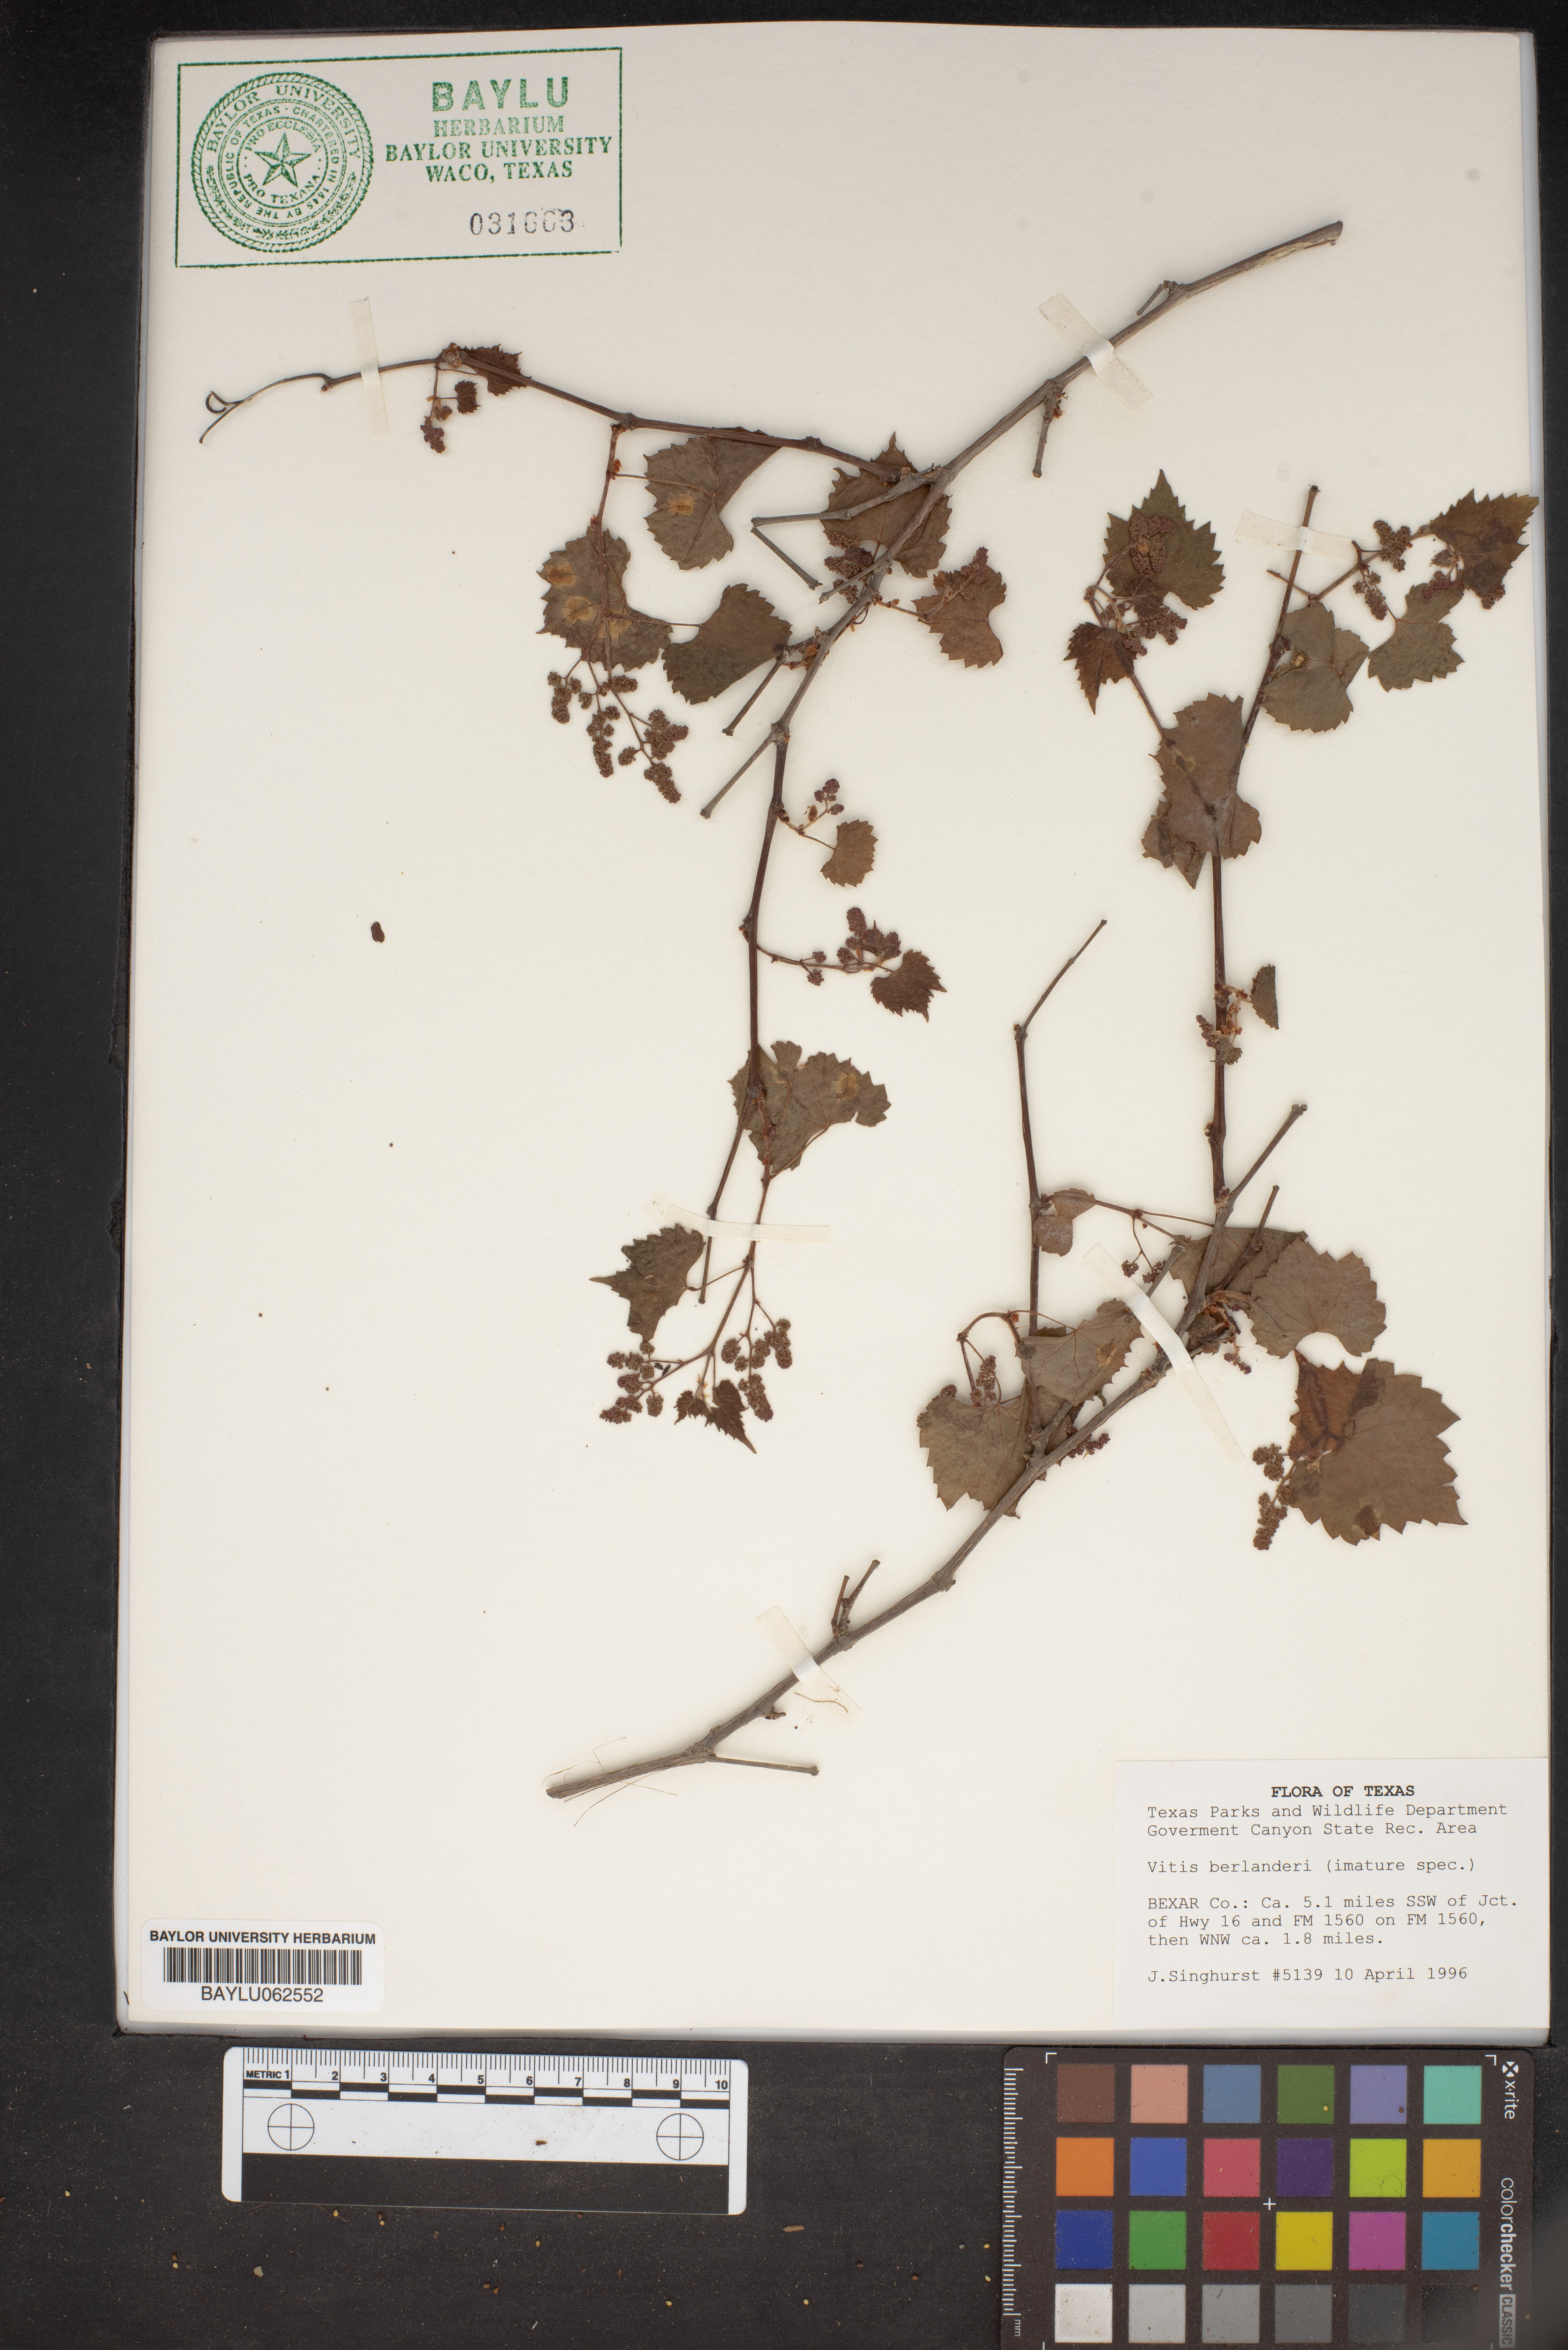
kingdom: Plantae
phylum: Tracheophyta
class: Magnoliopsida
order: Vitales
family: Vitaceae
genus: Vitis
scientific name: Vitis cinerea
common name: Ashy grape
